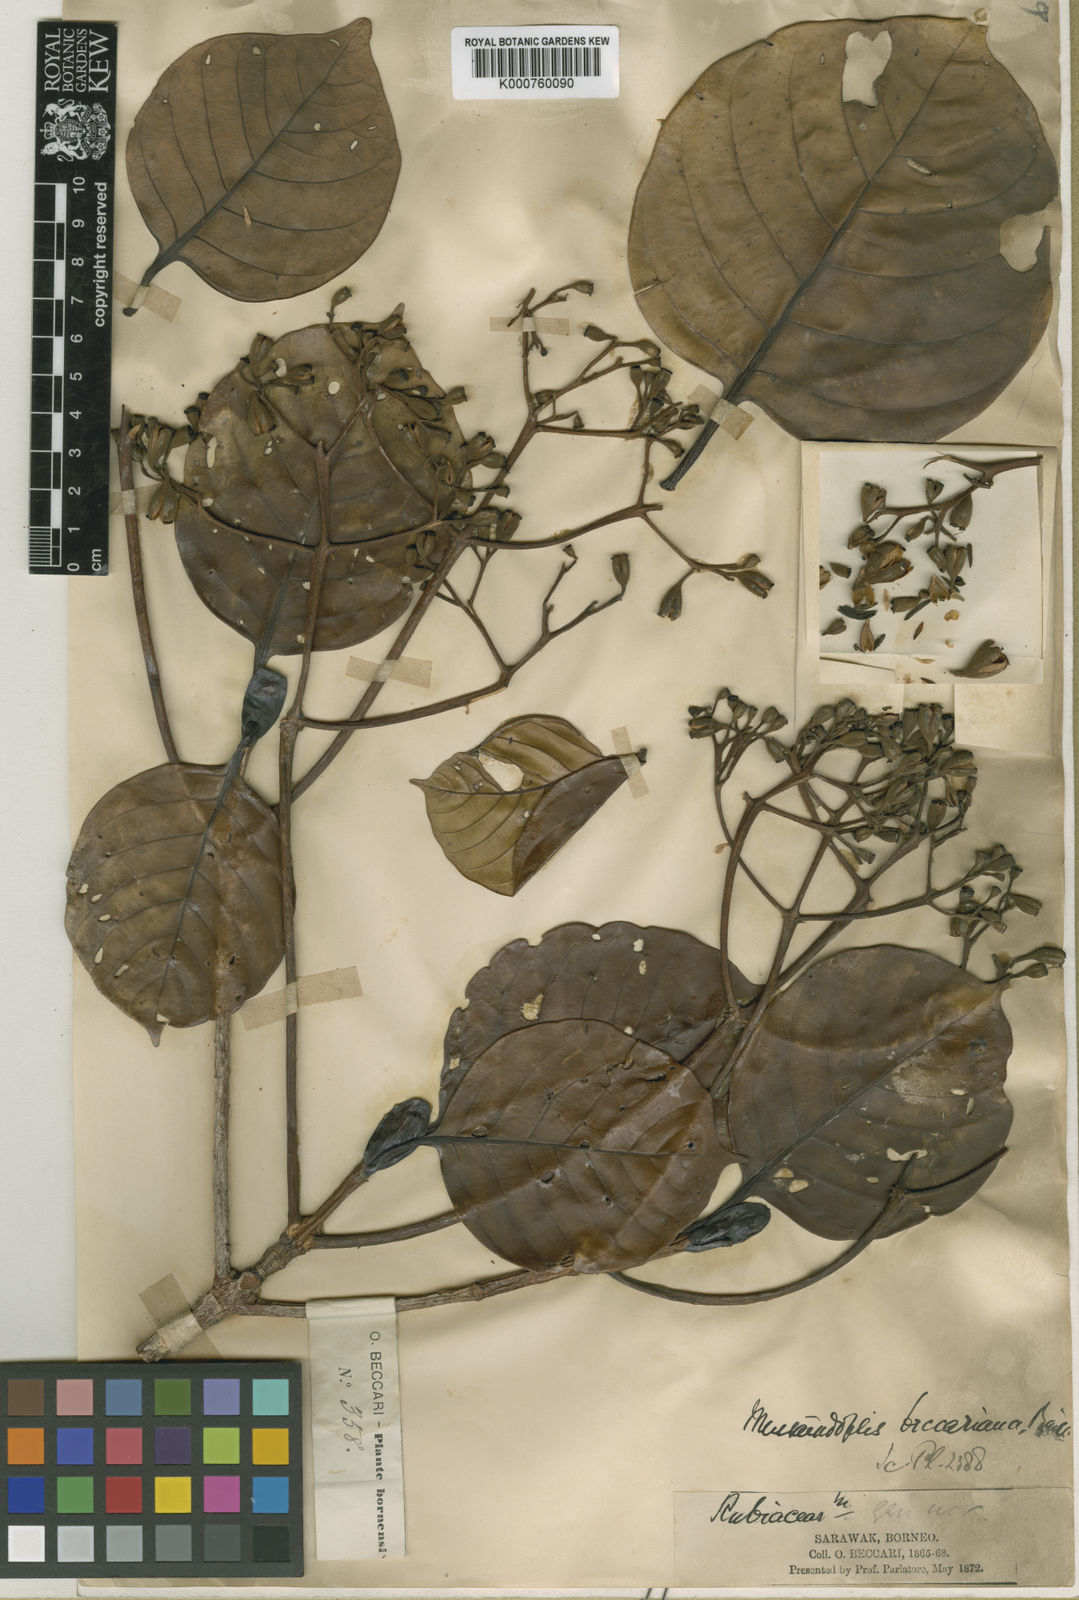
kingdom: Plantae
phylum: Tracheophyta
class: Magnoliopsida
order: Gentianales
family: Rubiaceae
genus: Mussaendopsis
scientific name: Mussaendopsis beccariana
